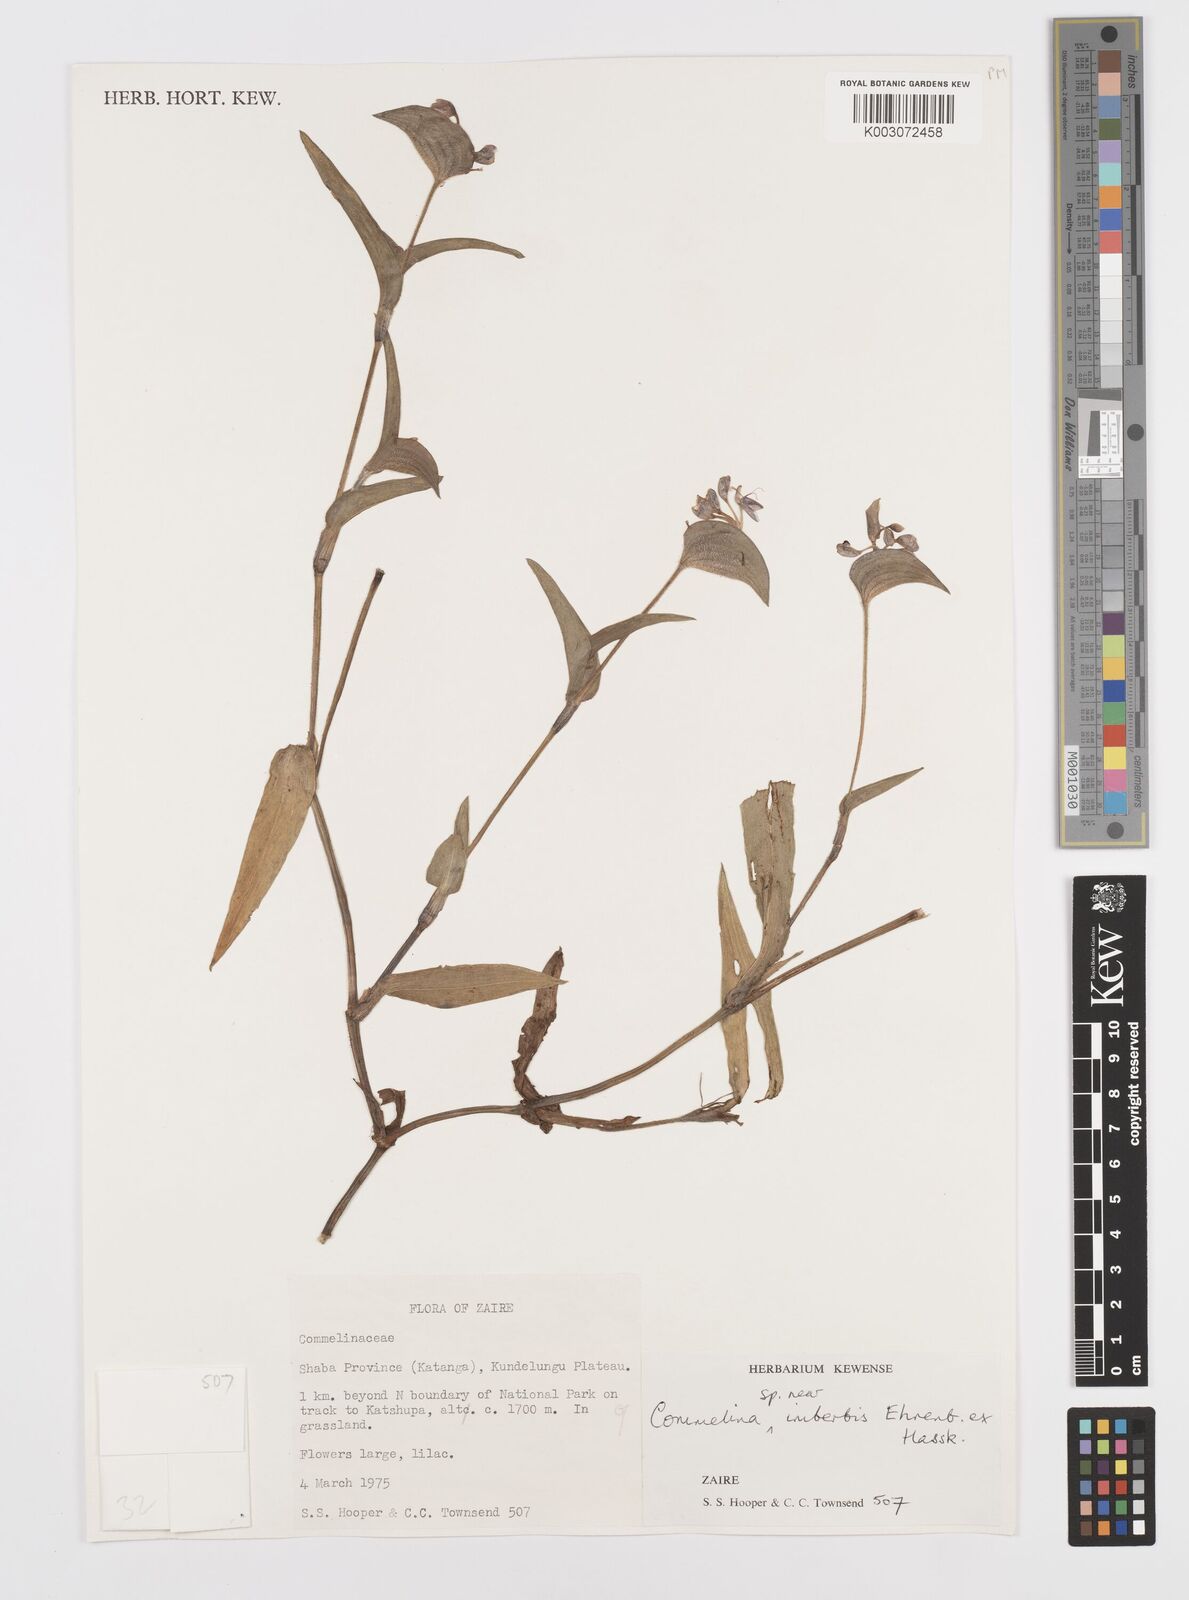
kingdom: Plantae
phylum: Tracheophyta
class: Liliopsida
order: Commelinales
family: Commelinaceae
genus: Commelina
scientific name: Commelina
